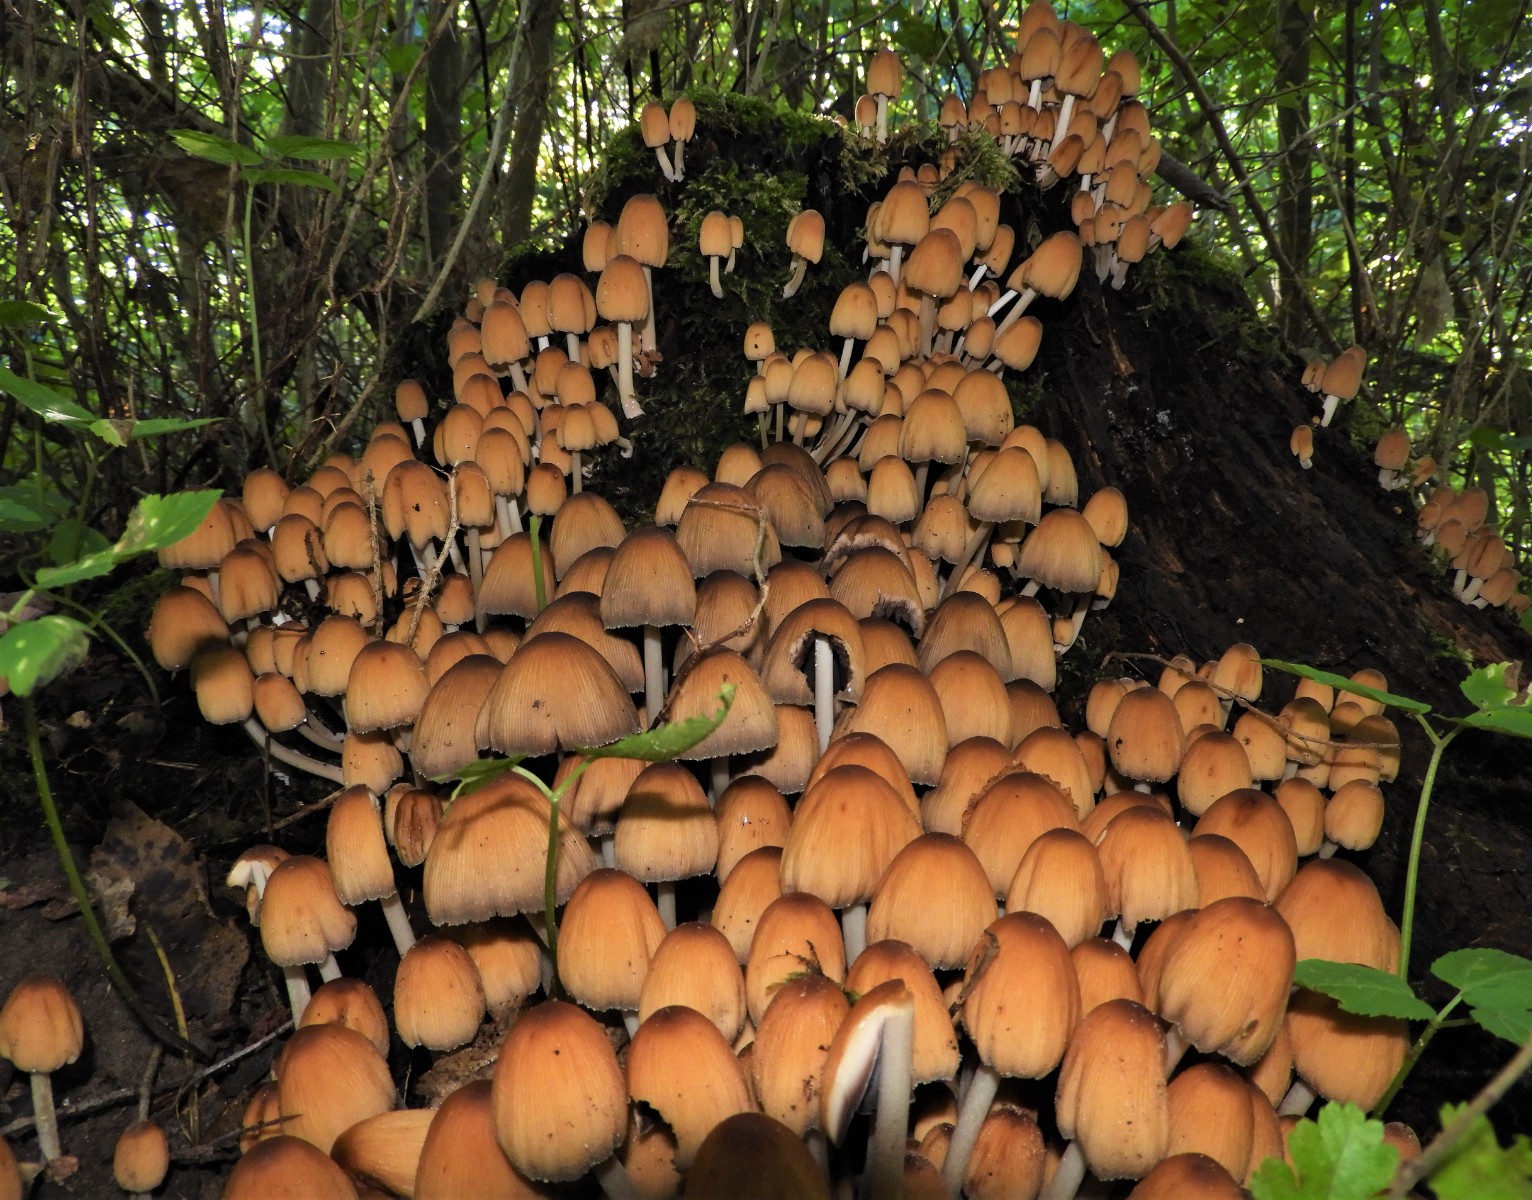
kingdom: Fungi
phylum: Basidiomycota
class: Agaricomycetes
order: Agaricales
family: Psathyrellaceae
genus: Coprinellus
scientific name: Coprinellus micaceus
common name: glimmer-blækhat
